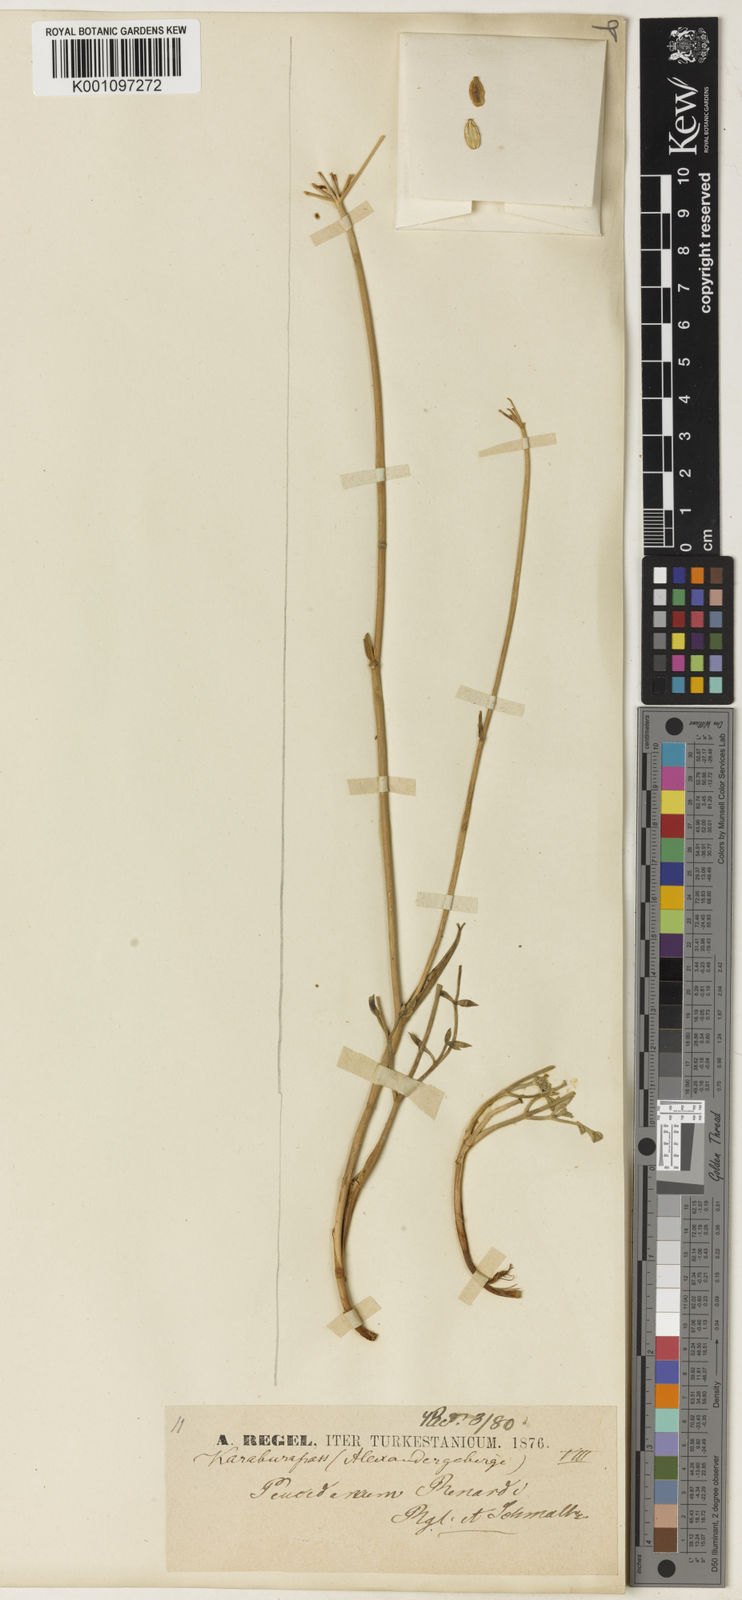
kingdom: Plantae
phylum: Tracheophyta
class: Magnoliopsida
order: Apiales
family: Apiaceae
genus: Ferula
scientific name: Ferula renardii
